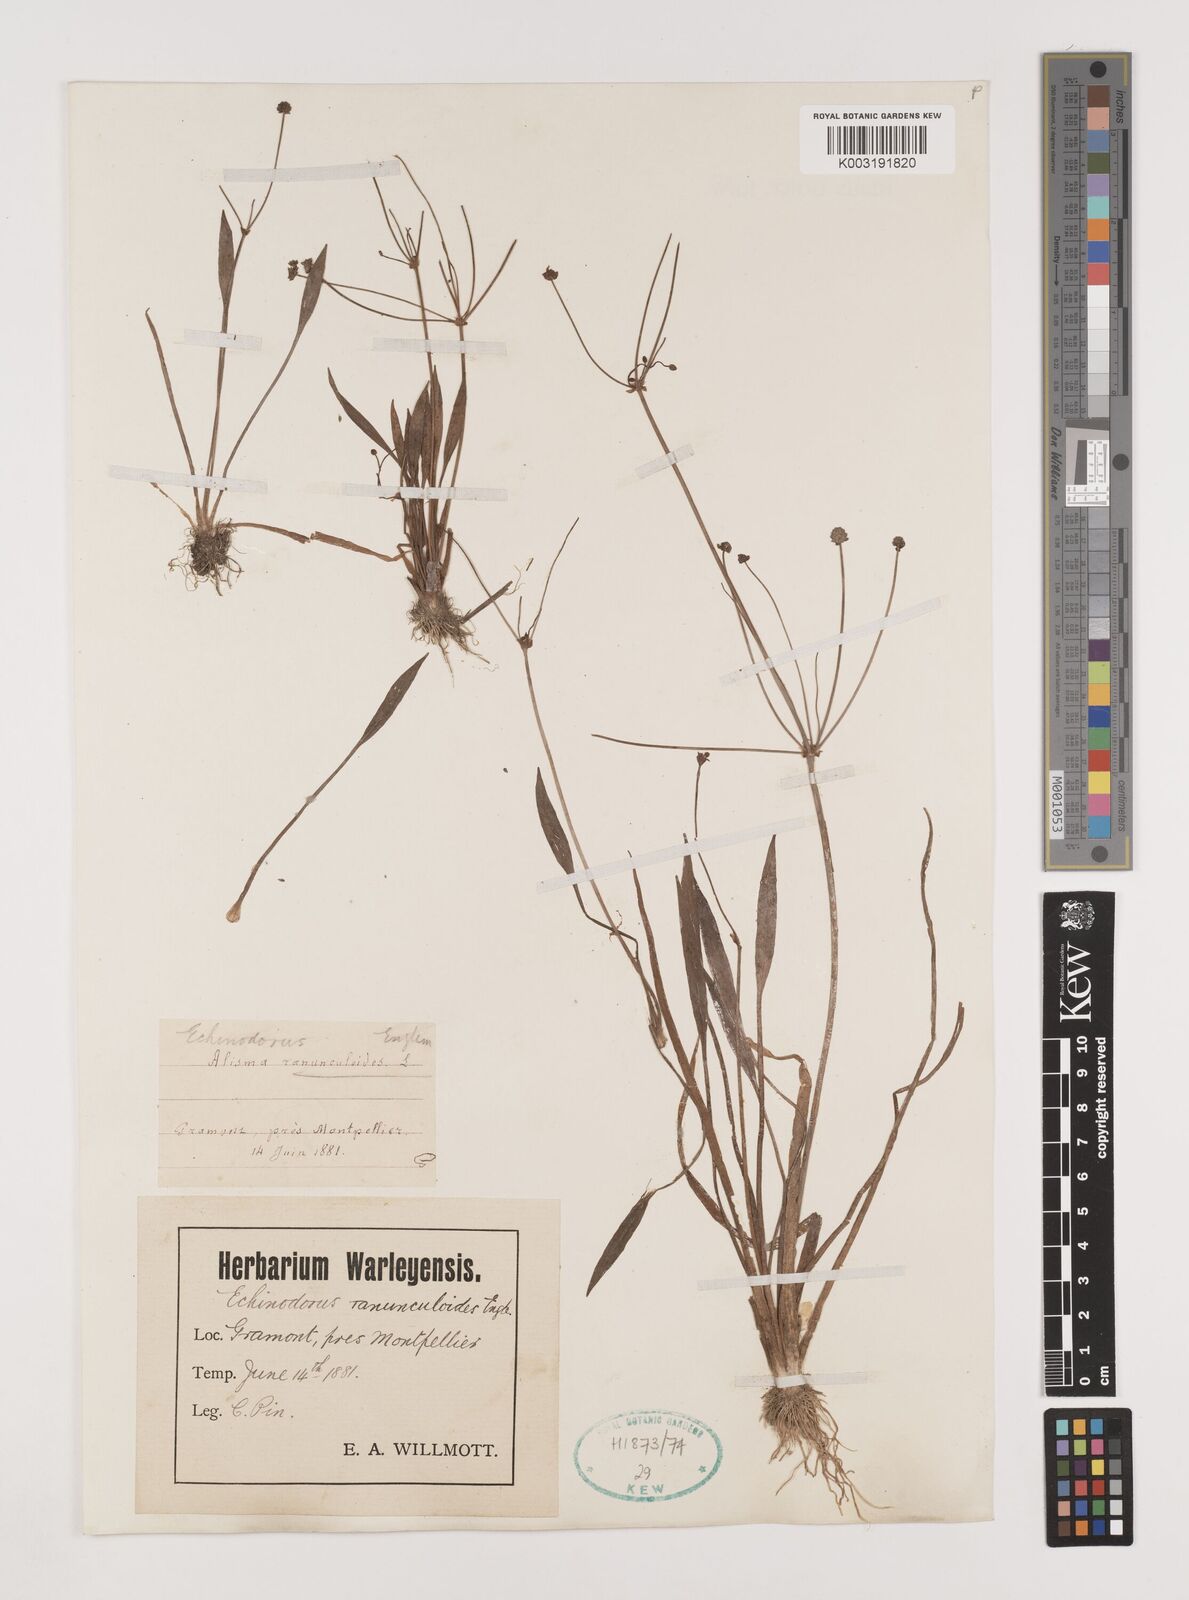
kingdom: Plantae
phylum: Tracheophyta
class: Liliopsida
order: Alismatales
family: Alismataceae
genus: Baldellia
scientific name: Baldellia ranunculoides
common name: Lesser water-plantain
